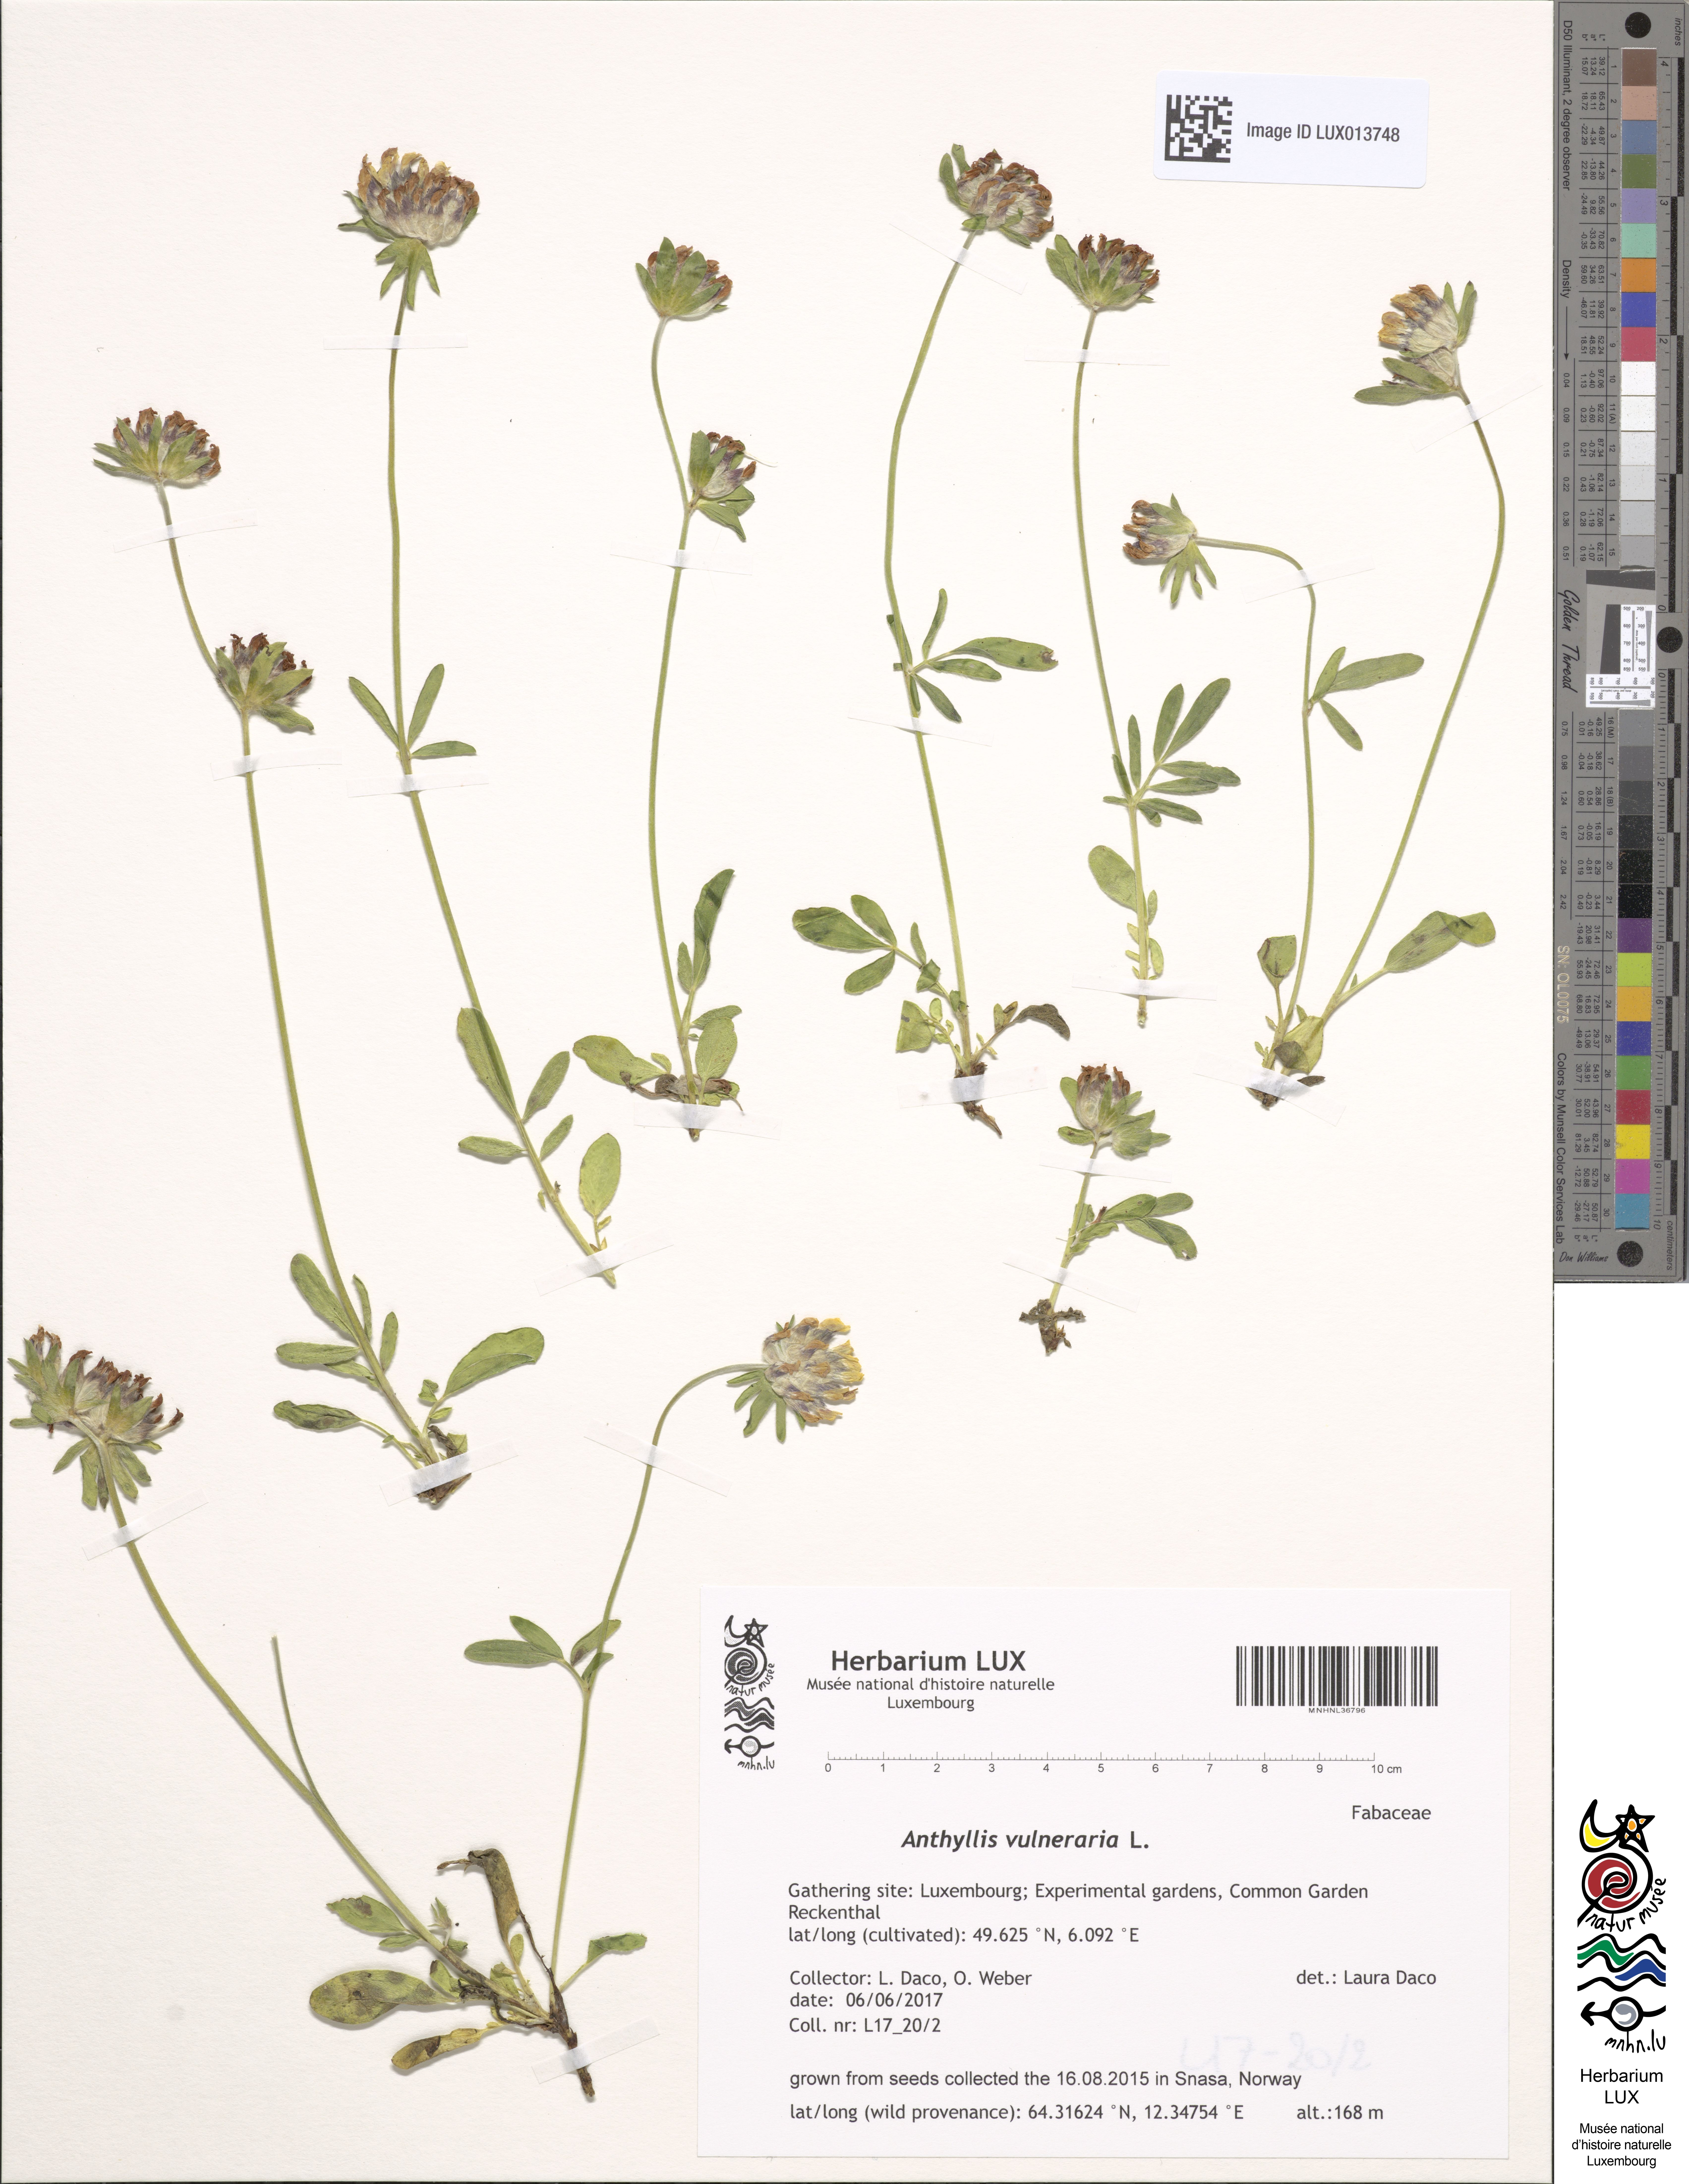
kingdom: Plantae
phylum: Tracheophyta
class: Magnoliopsida
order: Fabales
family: Fabaceae
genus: Anthyllis
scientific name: Anthyllis vulneraria
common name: Kidney vetch
